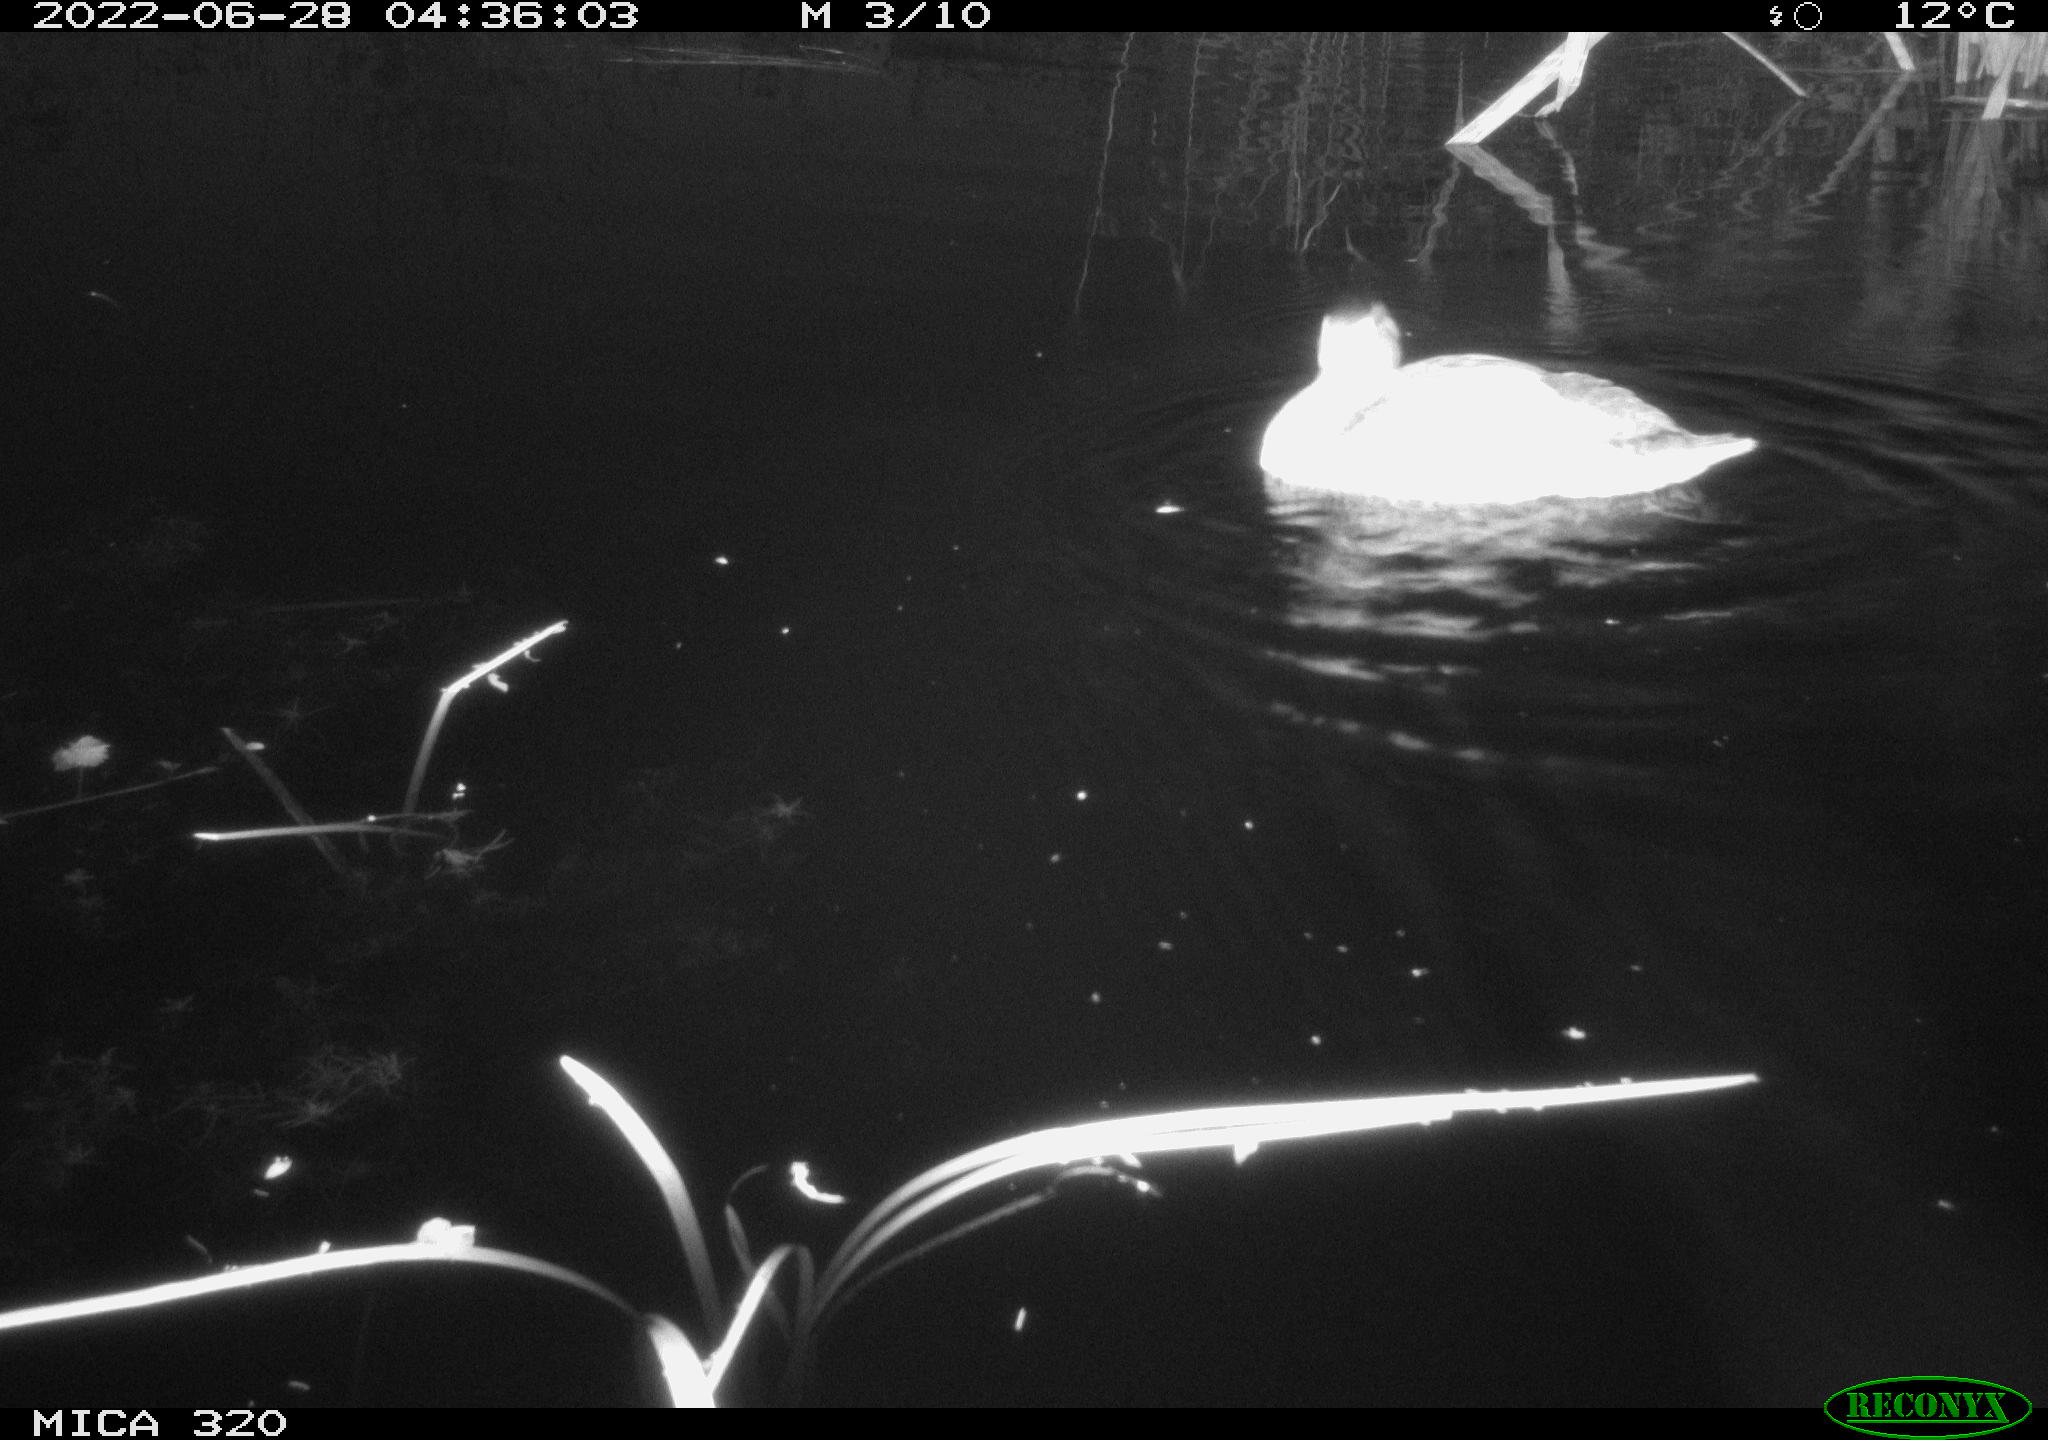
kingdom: Animalia
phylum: Chordata
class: Aves
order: Anseriformes
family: Anatidae
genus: Anas
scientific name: Anas platyrhynchos
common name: Mallard
